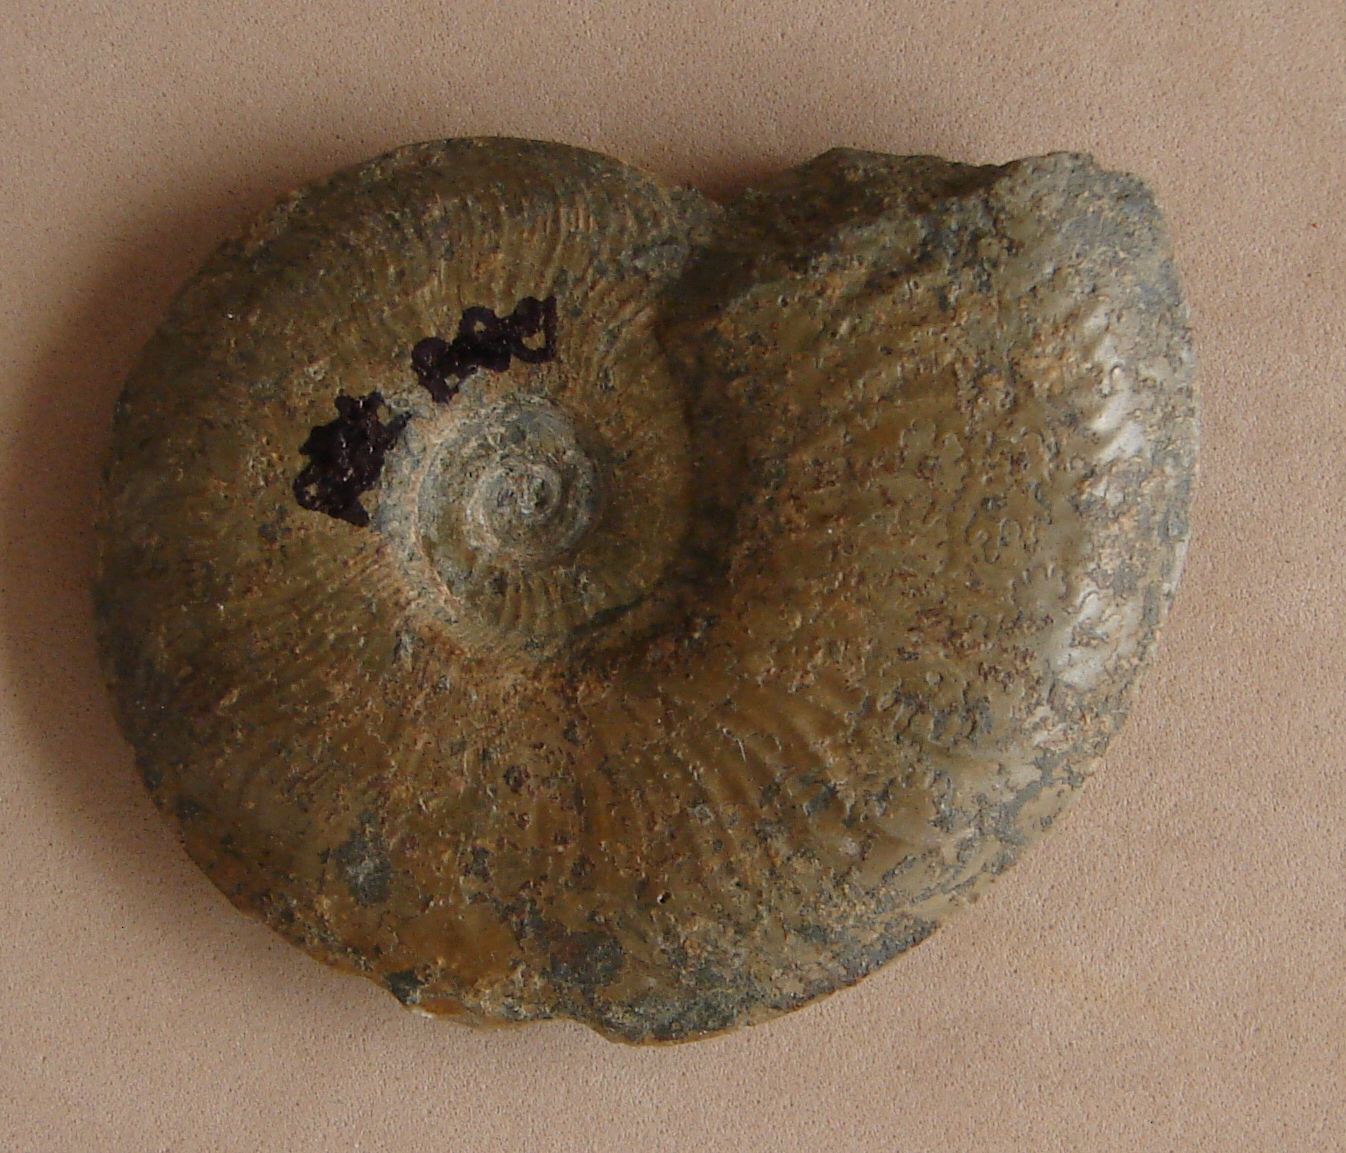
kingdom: Animalia
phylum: Mollusca
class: Cephalopoda
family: Hildoceratidae
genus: Pleydellia
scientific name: Pleydellia misera
